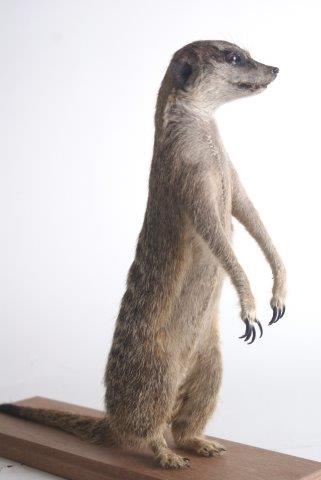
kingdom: Animalia
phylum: Chordata
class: Mammalia
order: Carnivora
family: Herpestidae
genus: Suricata
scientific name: Suricata suricatta
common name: Meerkat
